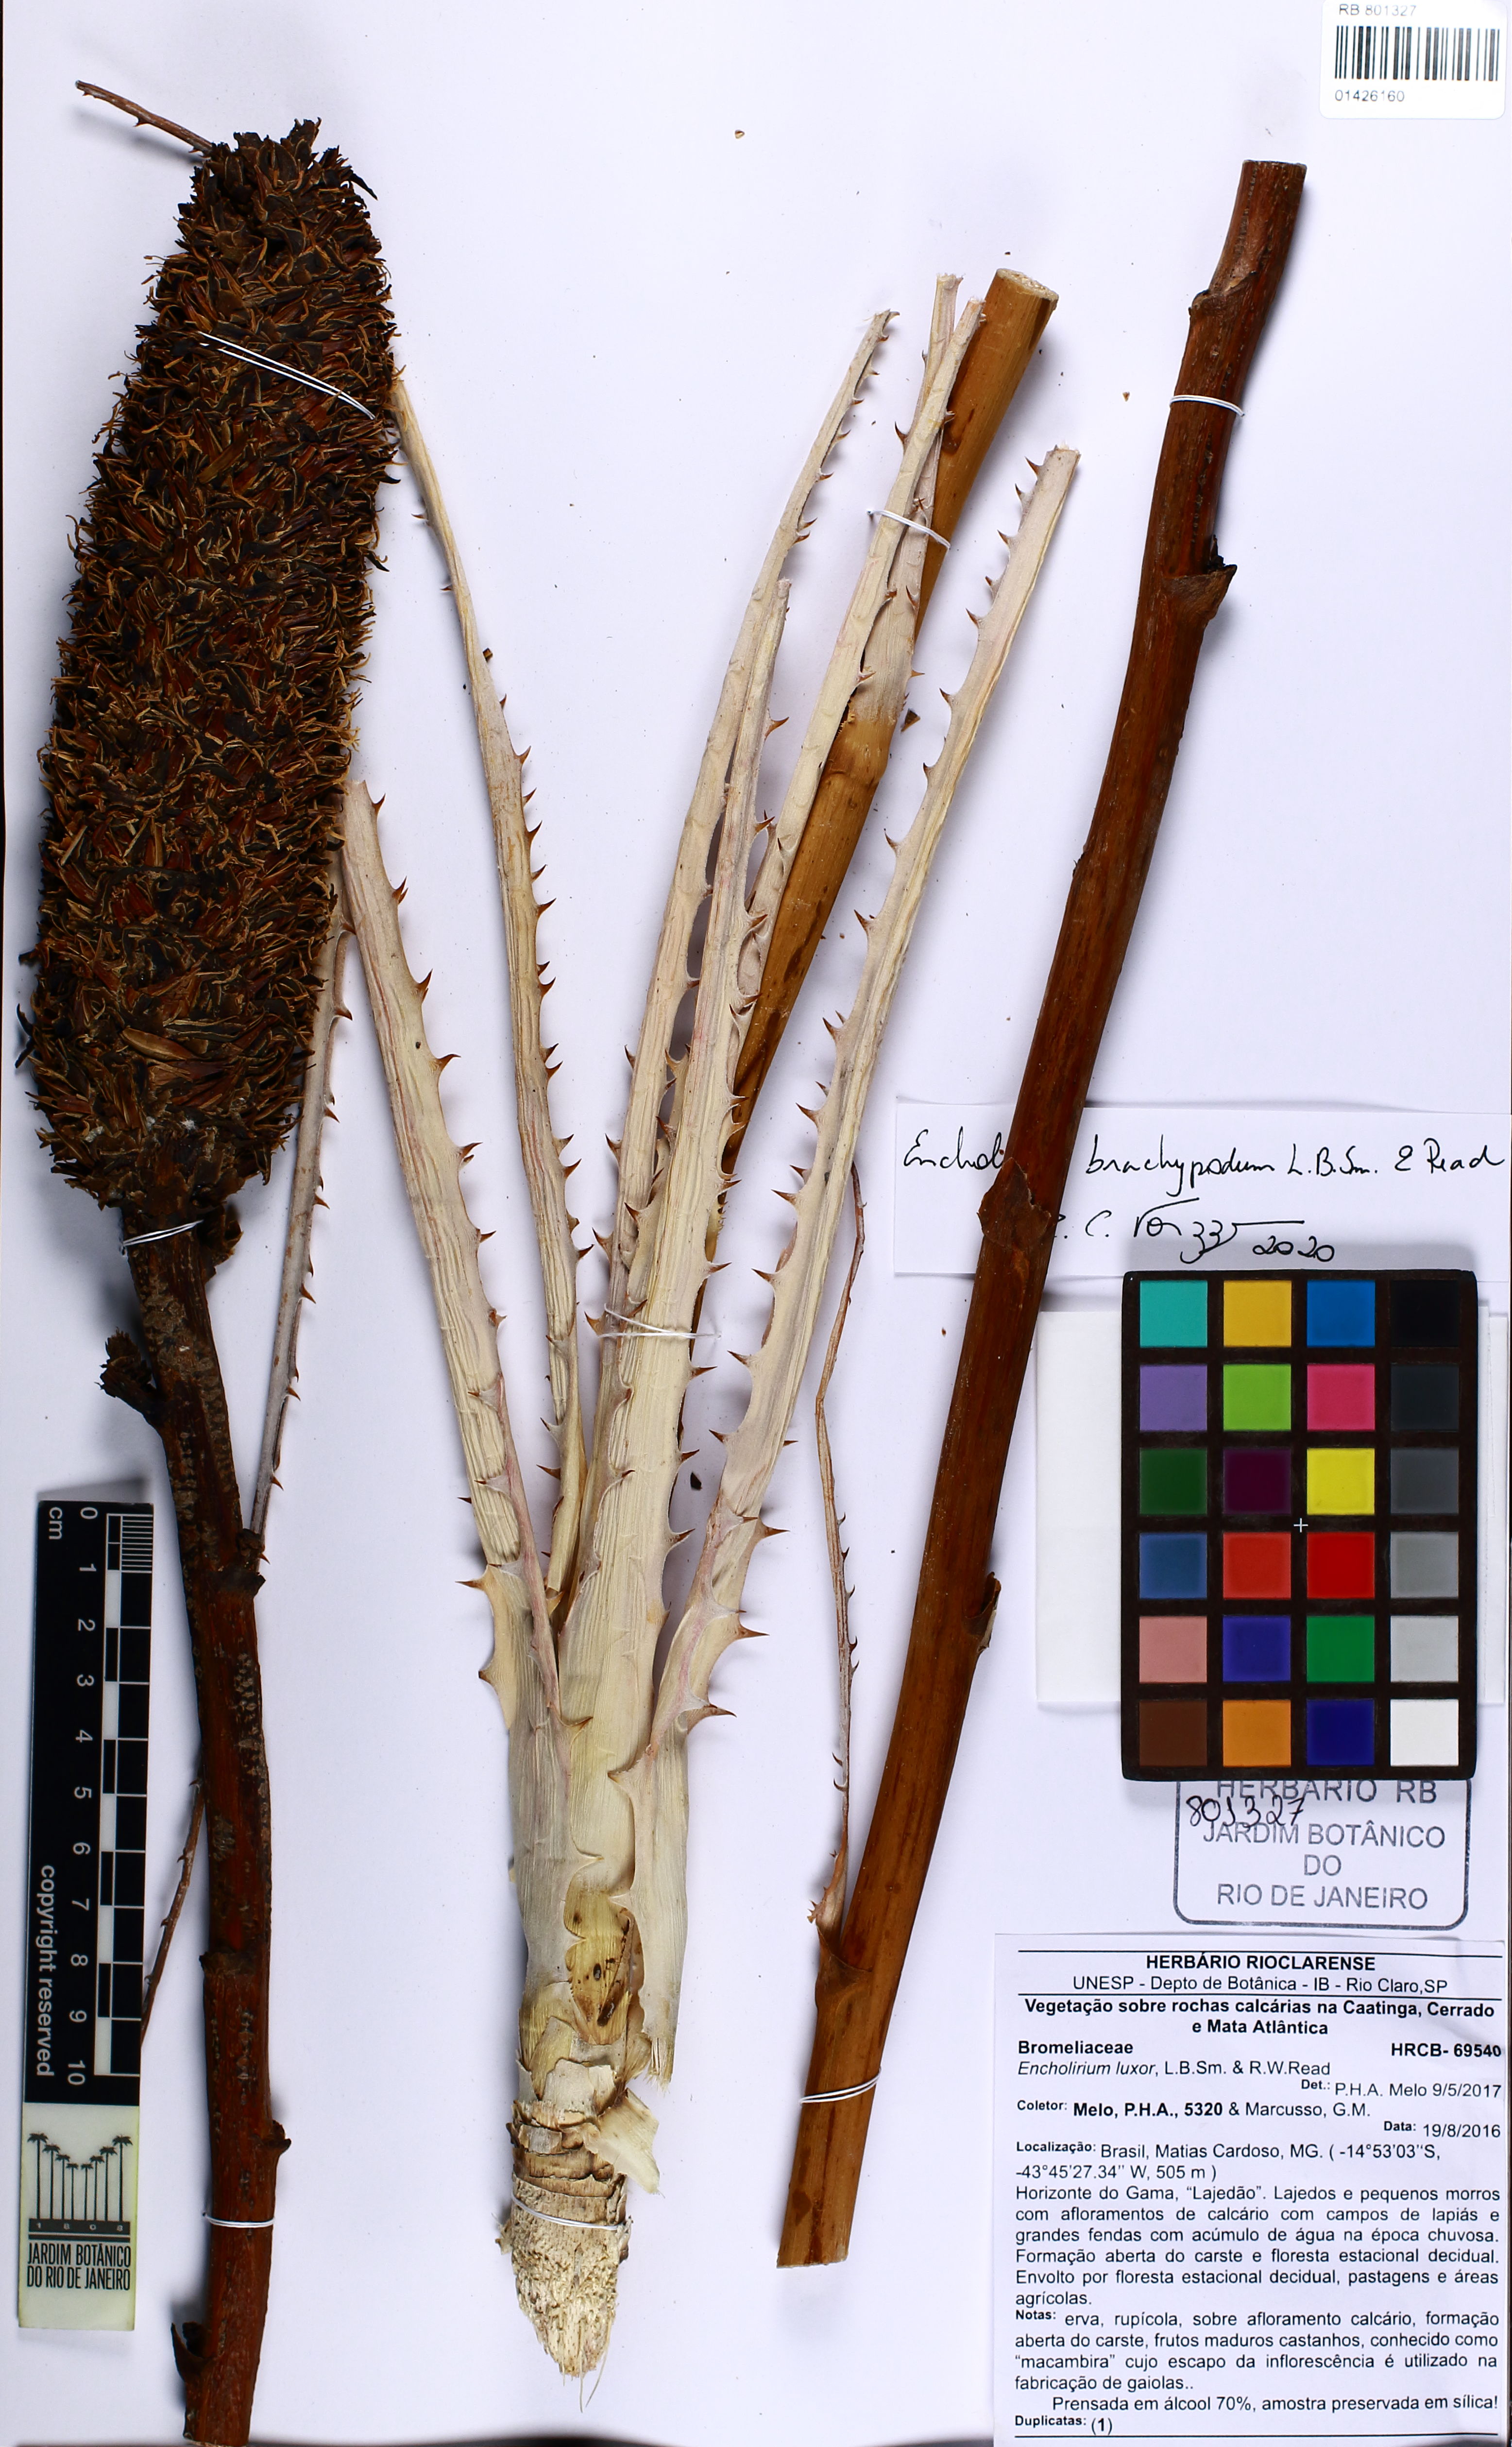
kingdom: Plantae
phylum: Tracheophyta
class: Liliopsida
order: Poales
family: Bromeliaceae
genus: Encholirium
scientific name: Encholirium brachypodum
